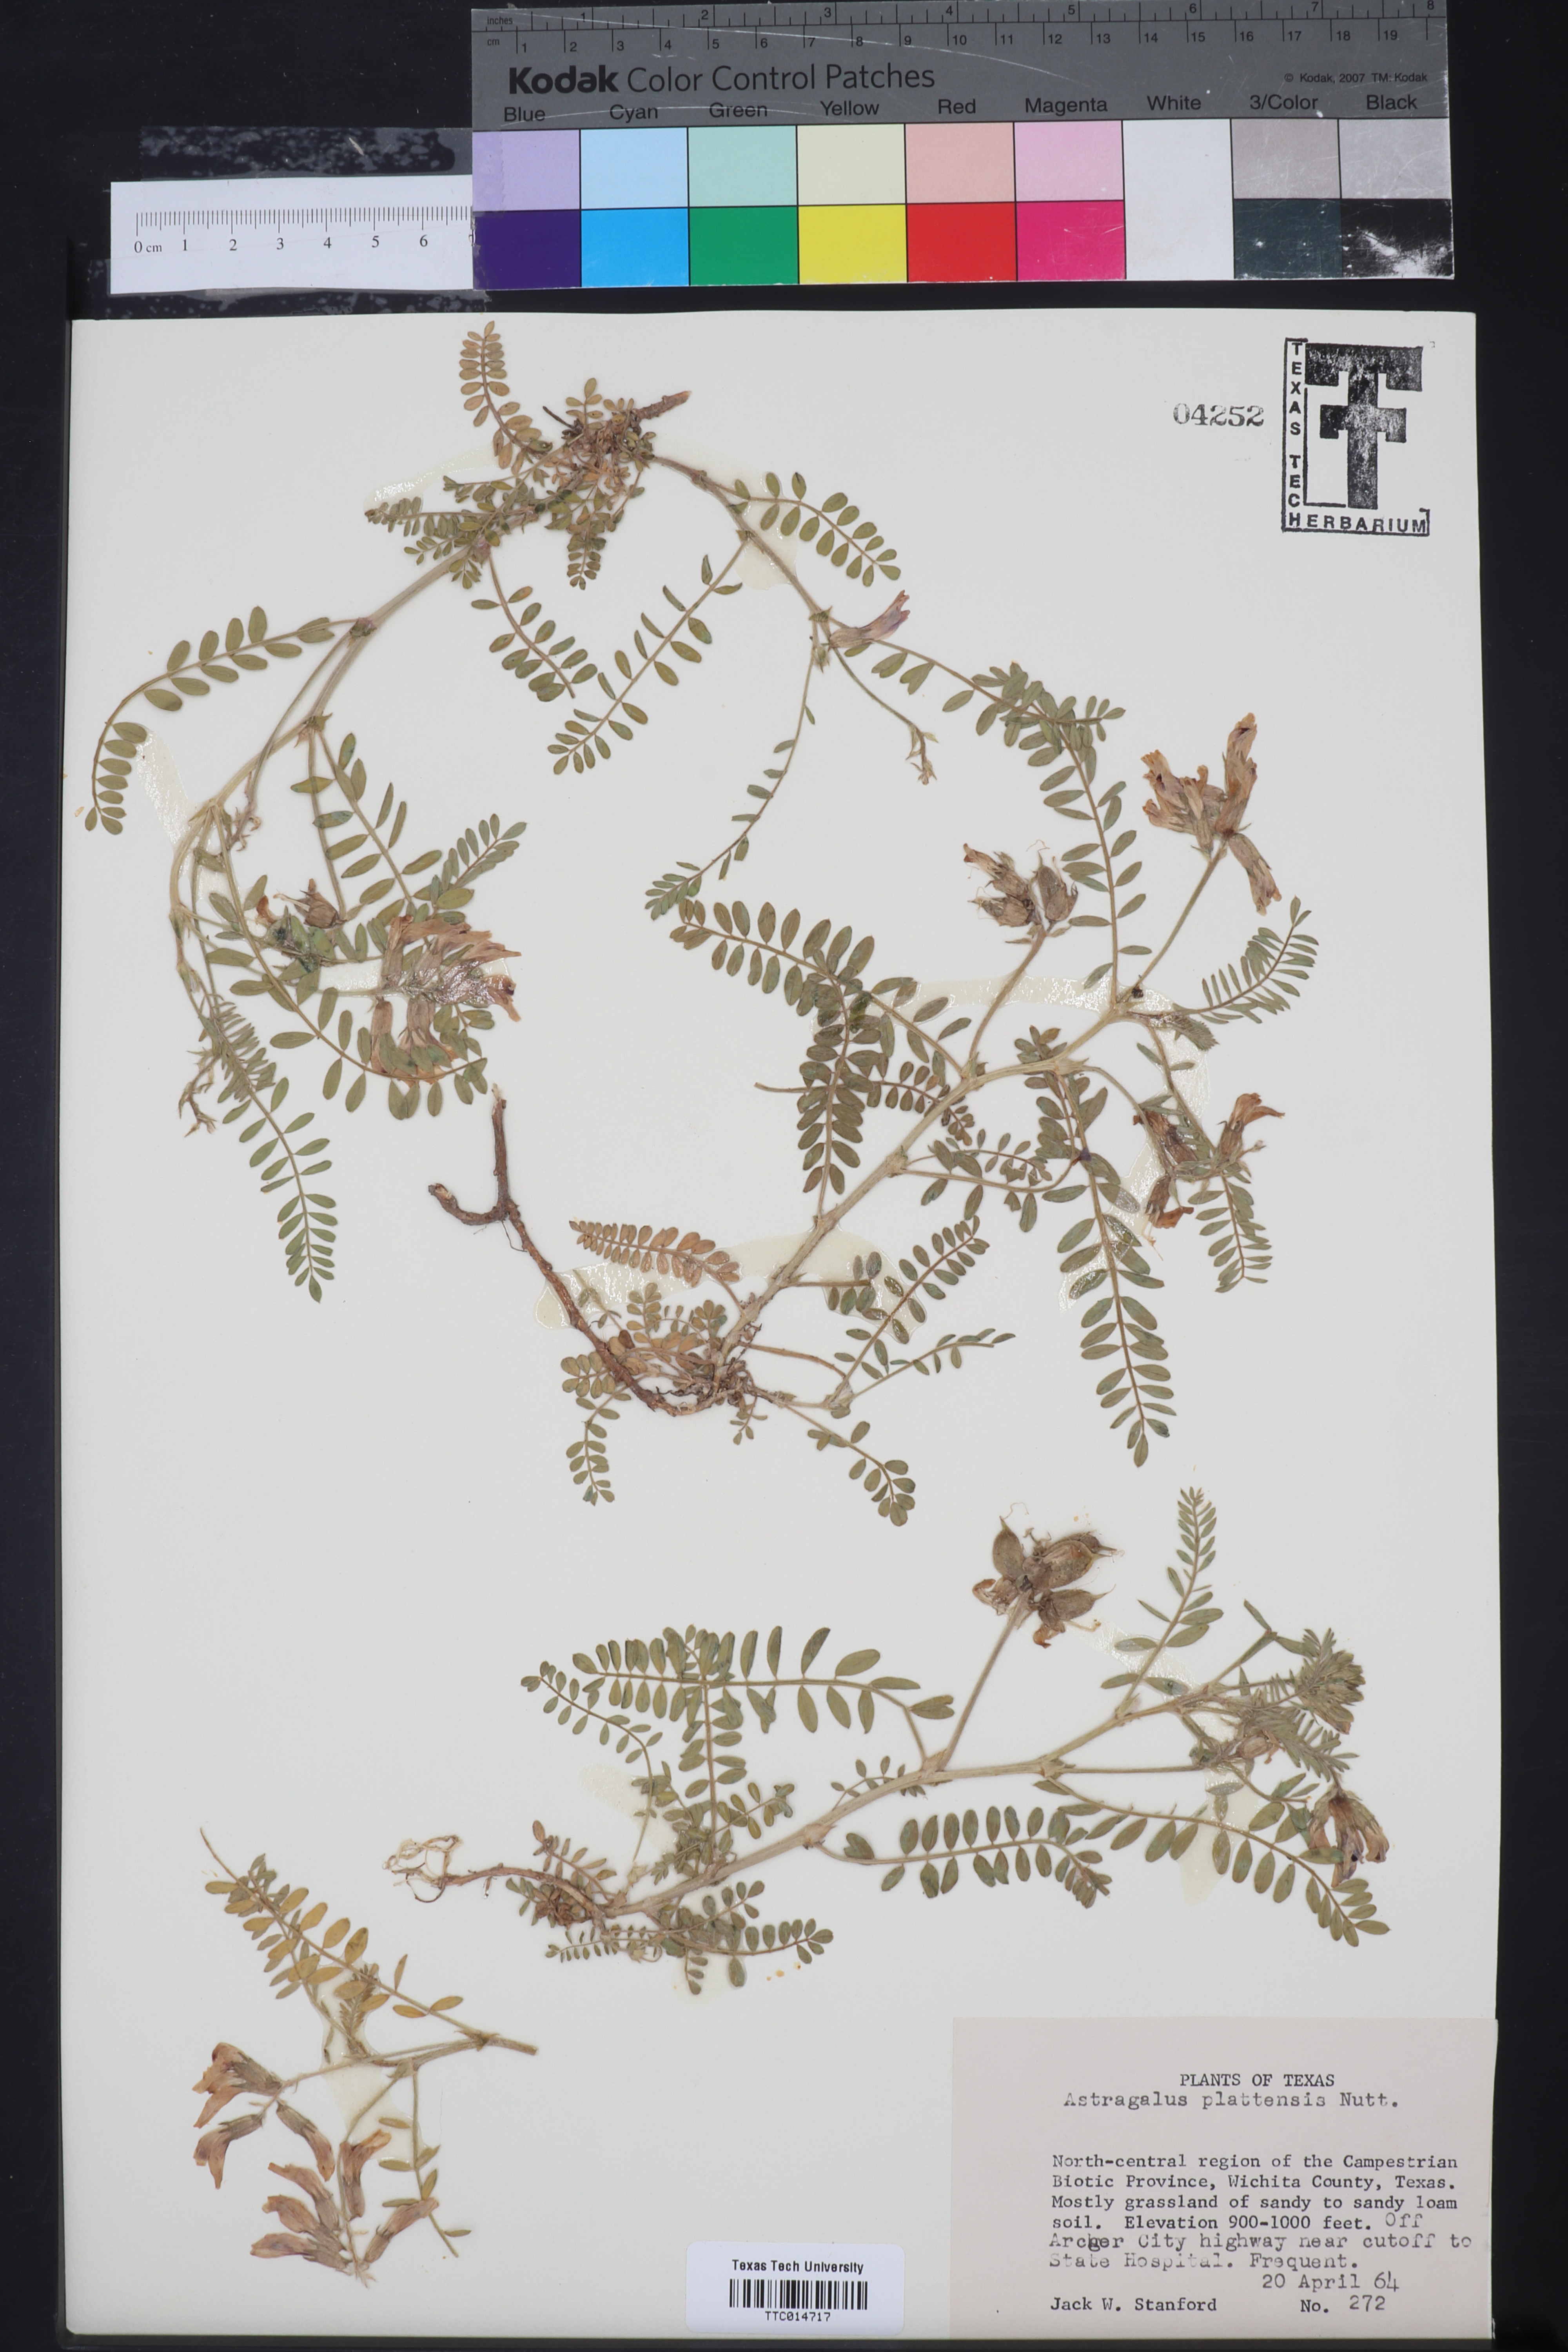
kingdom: Plantae
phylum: Tracheophyta
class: Magnoliopsida
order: Fabales
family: Fabaceae
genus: Astragalus
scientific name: Astragalus plattensis
